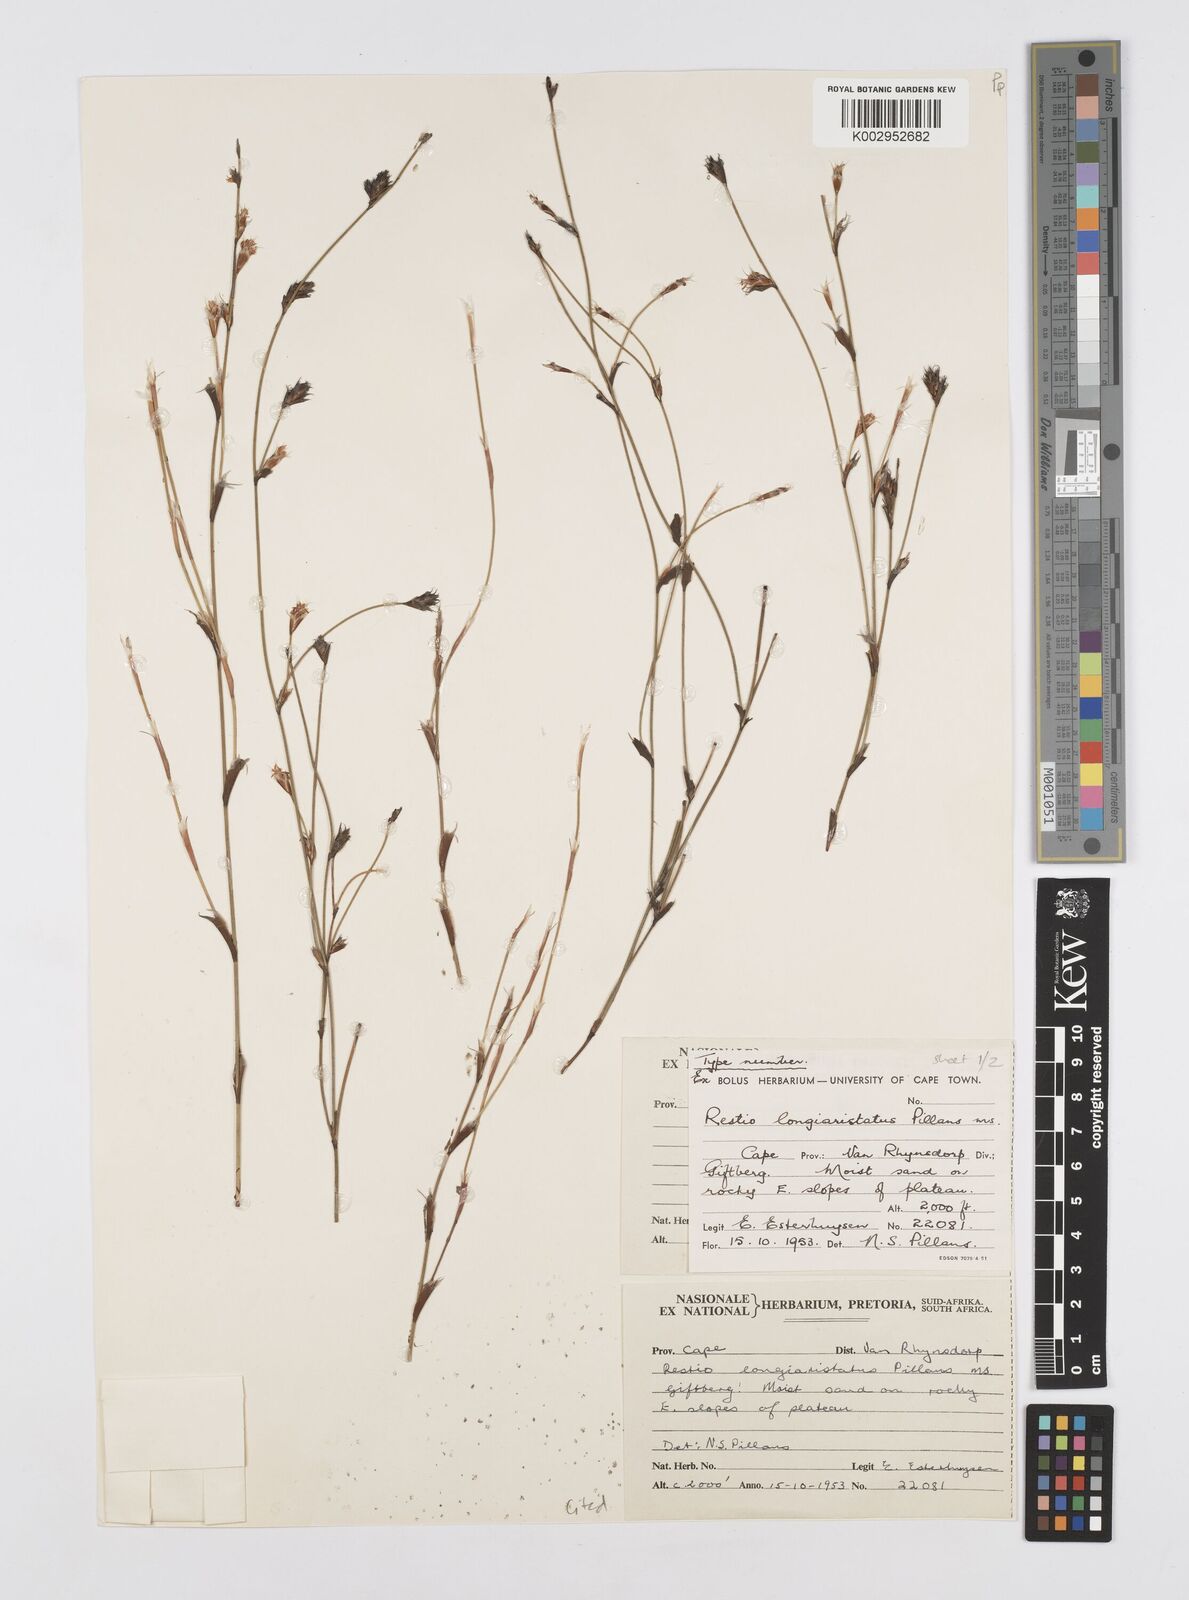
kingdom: Plantae
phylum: Tracheophyta
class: Liliopsida
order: Poales
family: Restionaceae
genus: Restio
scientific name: Restio longiaristatus
